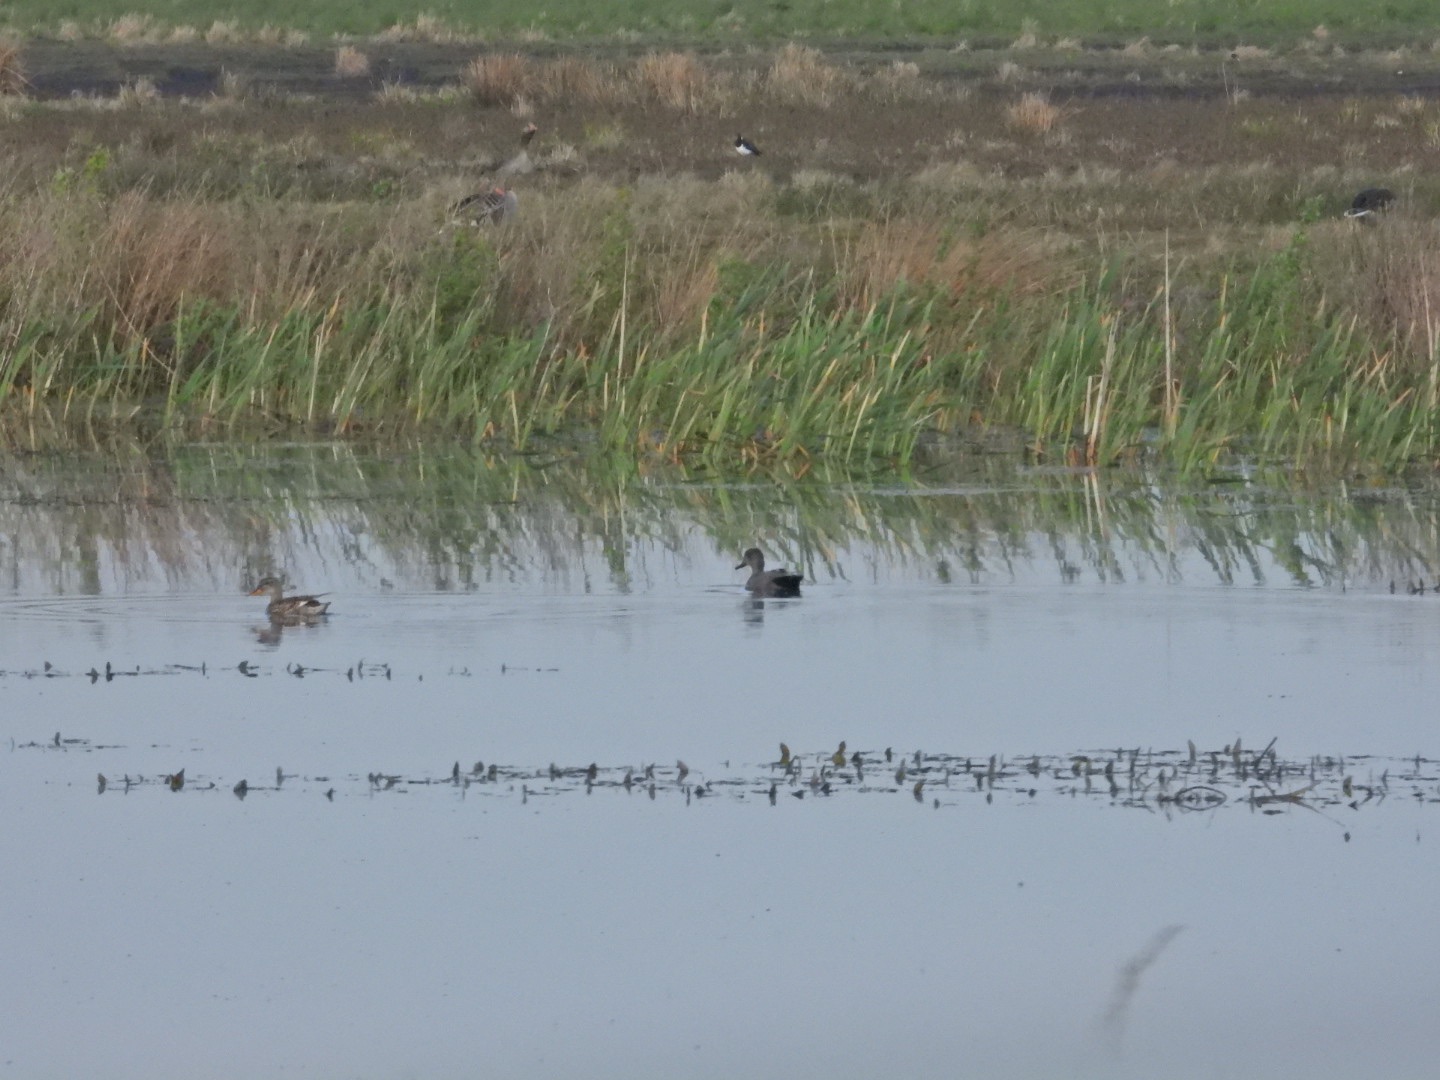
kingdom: Animalia
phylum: Chordata
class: Aves
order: Anseriformes
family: Anatidae
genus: Mareca
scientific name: Mareca strepera
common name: Knarand
